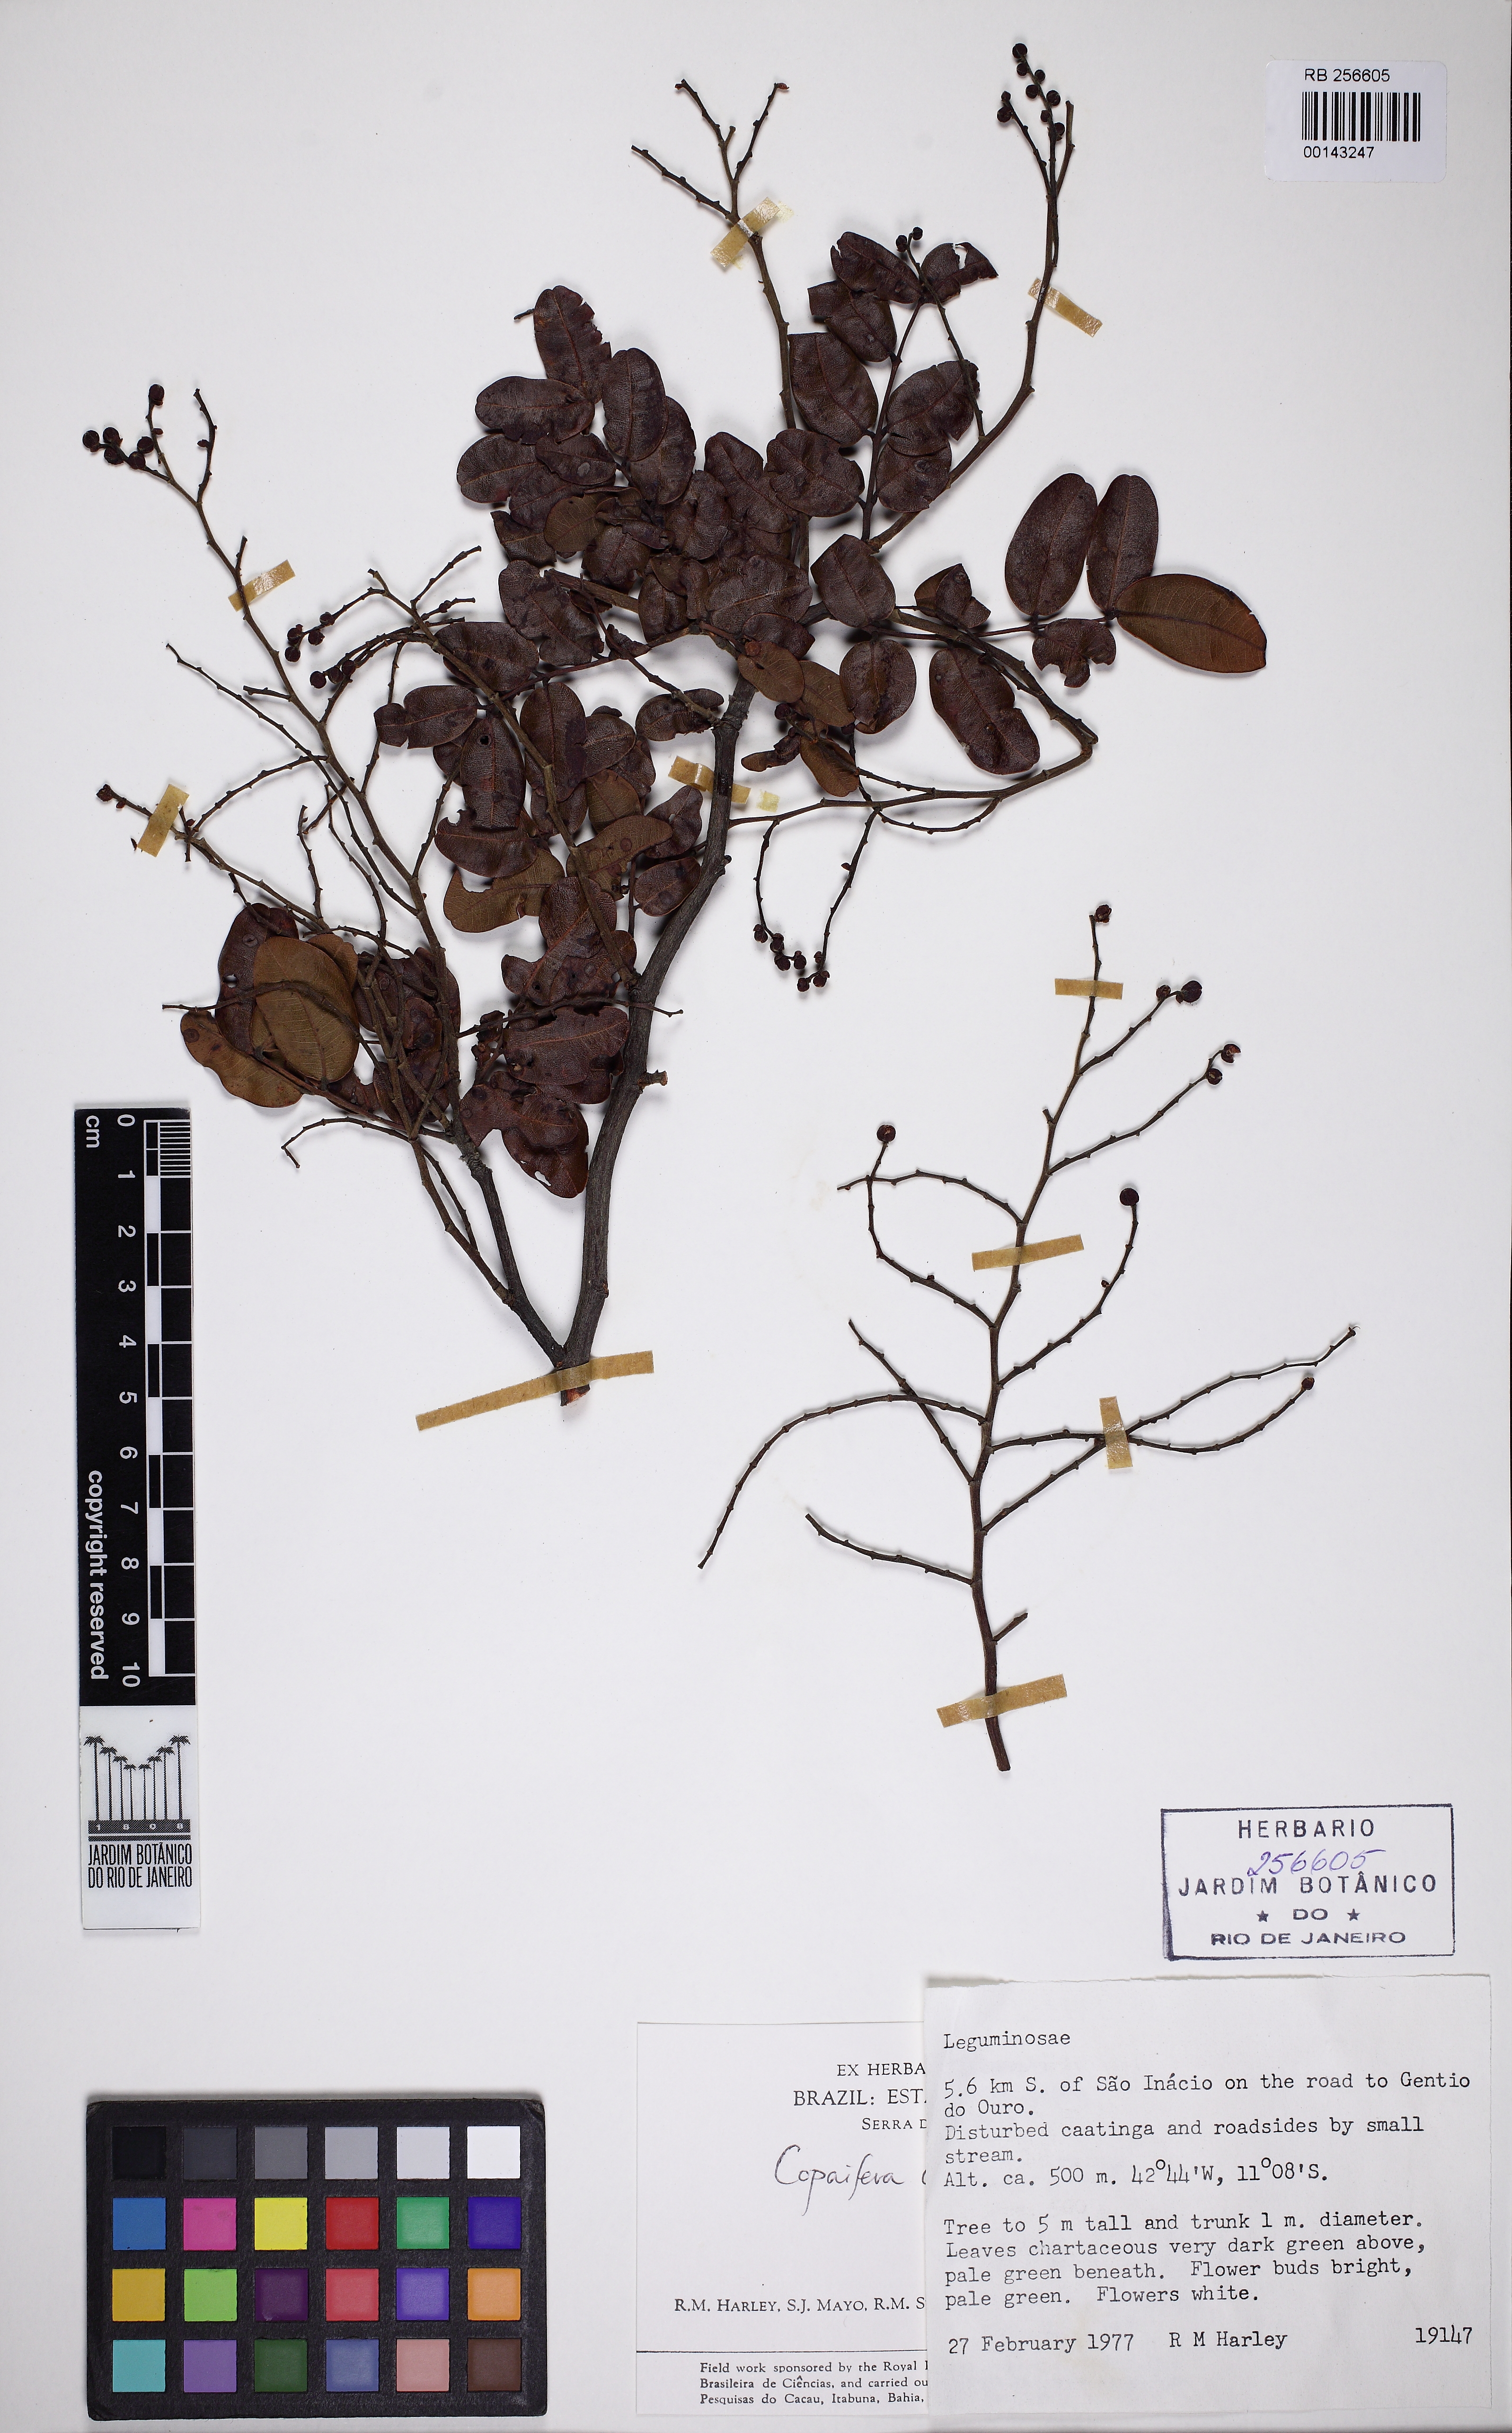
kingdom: Plantae
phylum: Tracheophyta
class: Magnoliopsida
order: Fabales
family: Fabaceae
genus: Copaifera
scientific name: Copaifera coriacea
